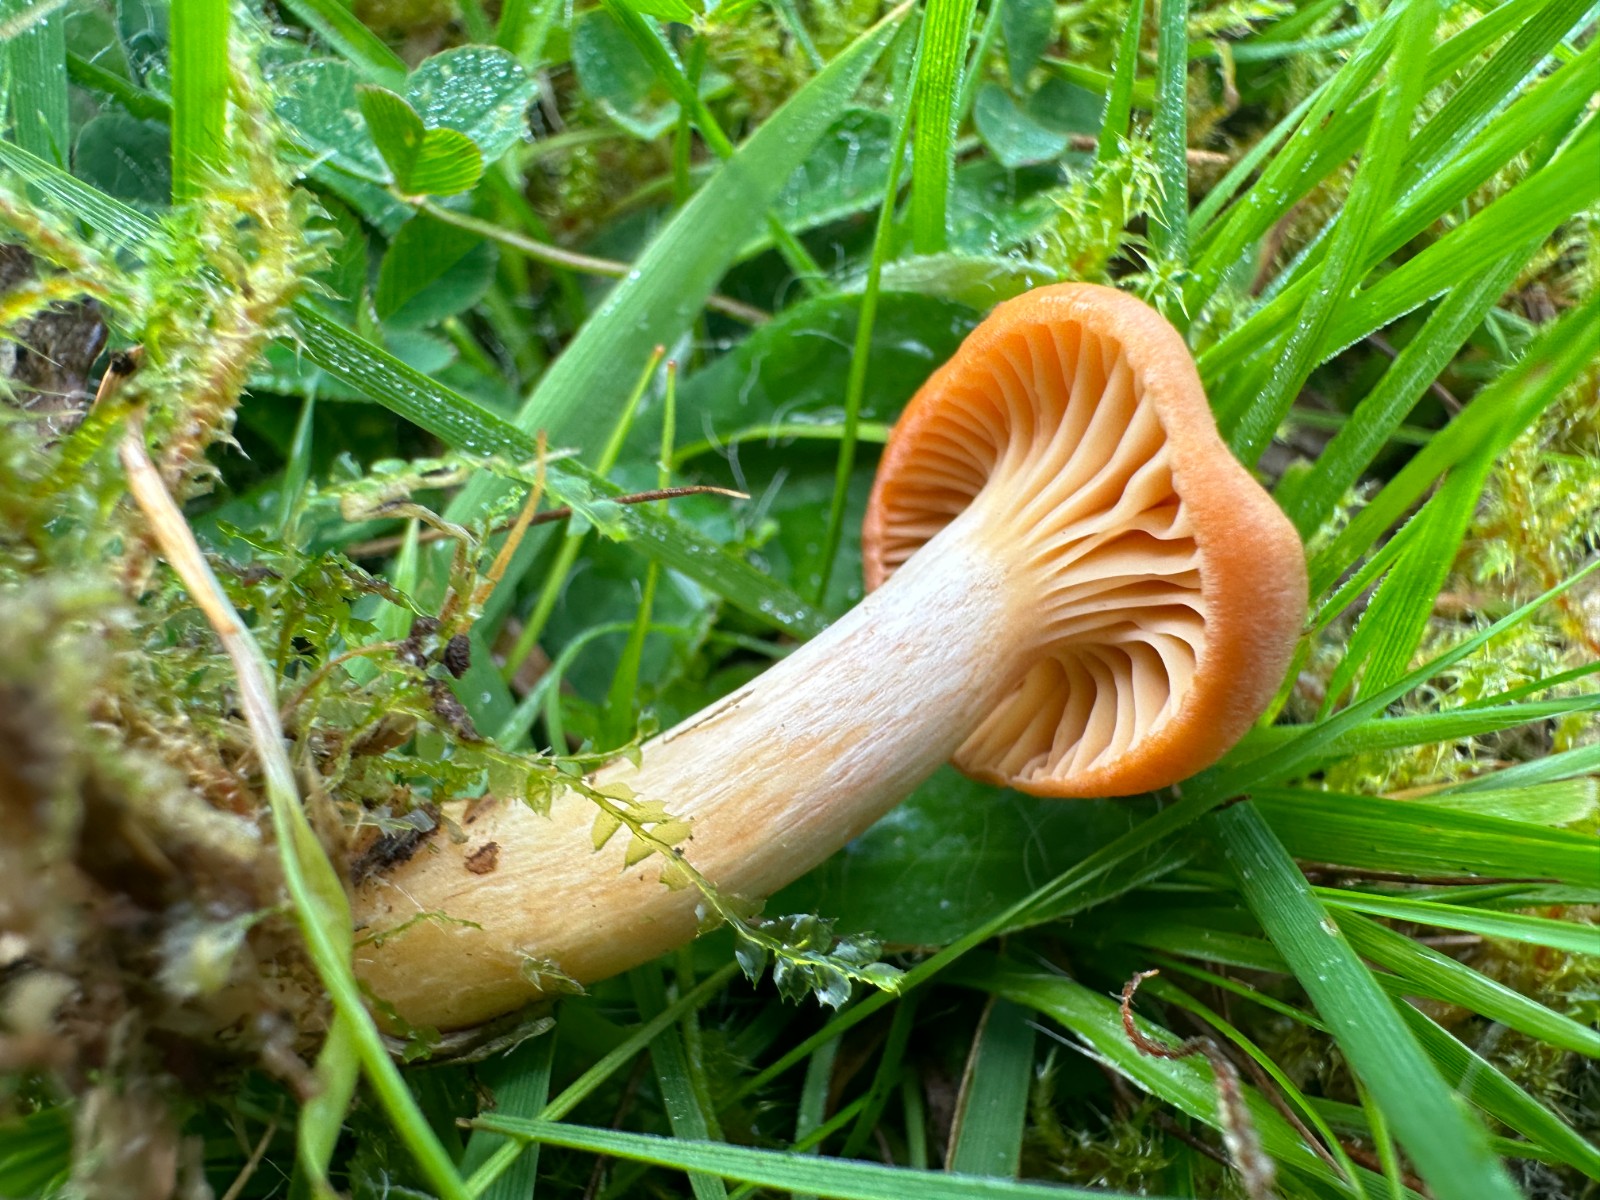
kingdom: Fungi
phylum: Basidiomycota
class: Agaricomycetes
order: Agaricales
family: Hygrophoraceae
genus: Cuphophyllus
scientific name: Cuphophyllus pratensis
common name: eng-vokshat
